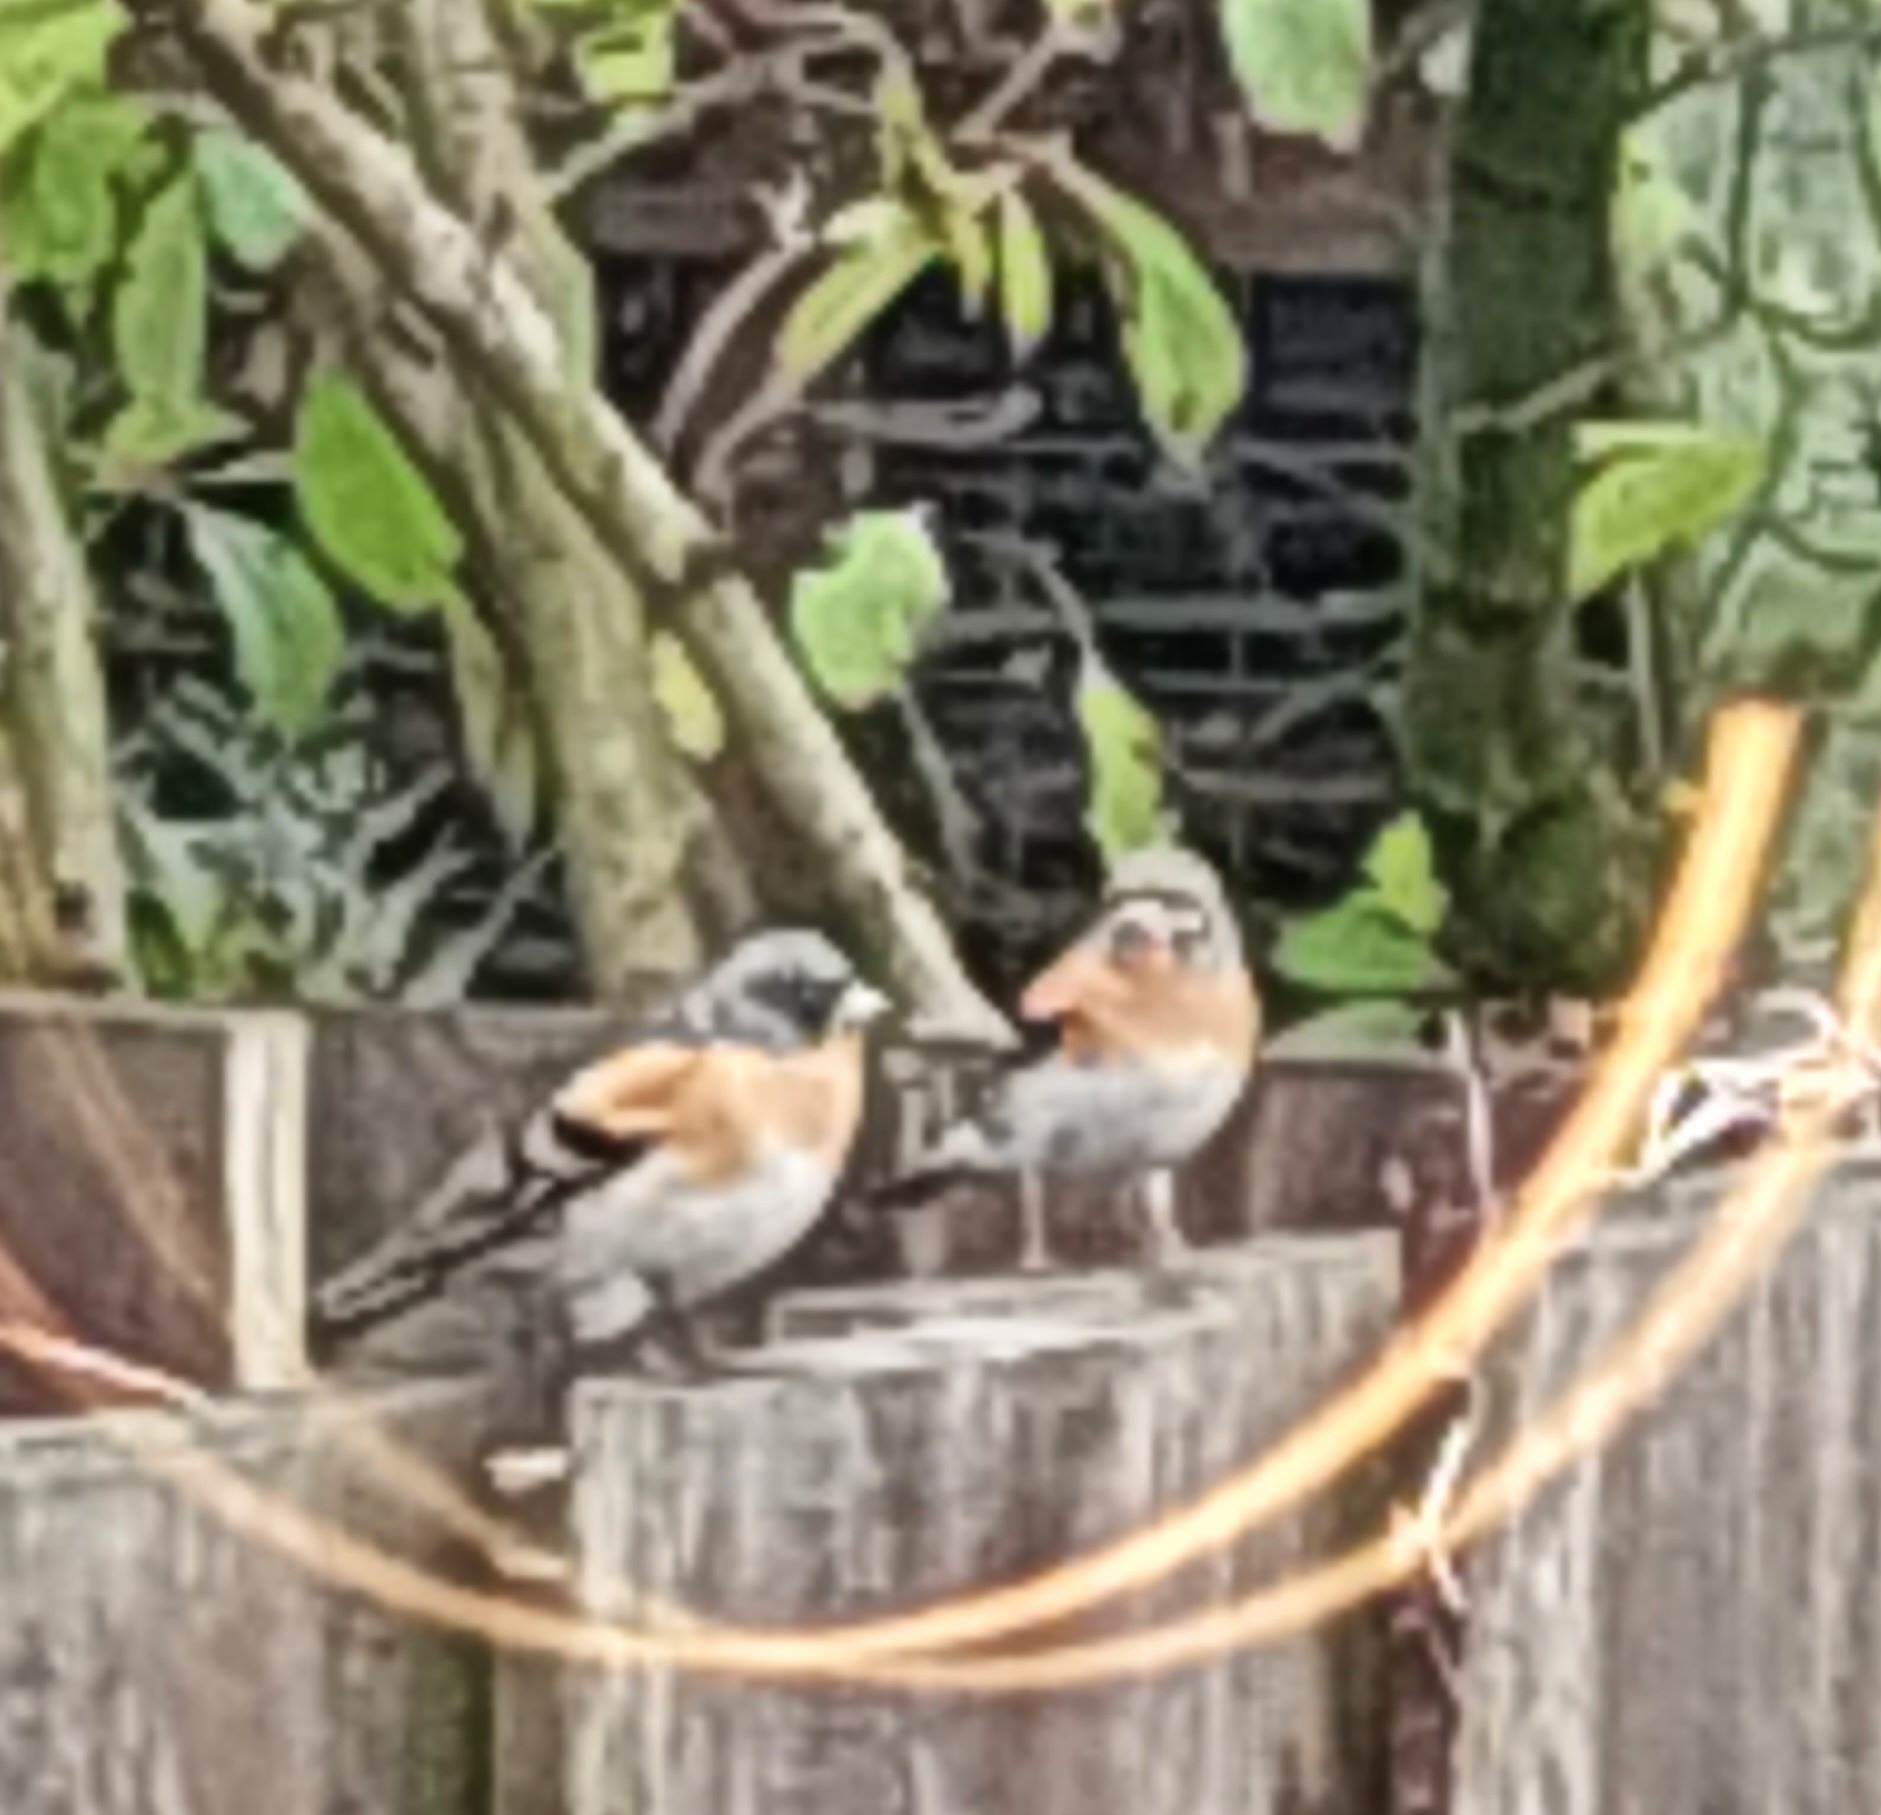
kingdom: Animalia
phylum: Chordata
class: Aves
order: Passeriformes
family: Fringillidae
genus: Fringilla
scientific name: Fringilla montifringilla
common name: Kvækerfinke
